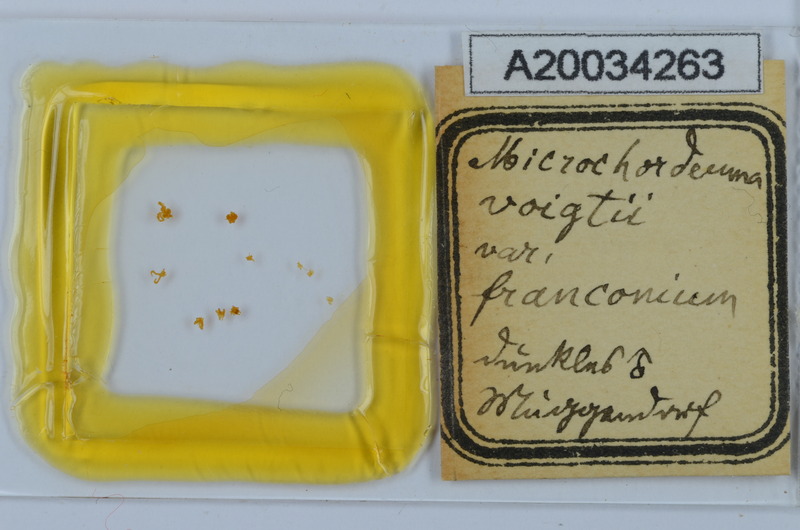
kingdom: Animalia
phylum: Arthropoda
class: Diplopoda
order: Chordeumatida
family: Chordeumatidae
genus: Melogona
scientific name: Melogona voigtii
